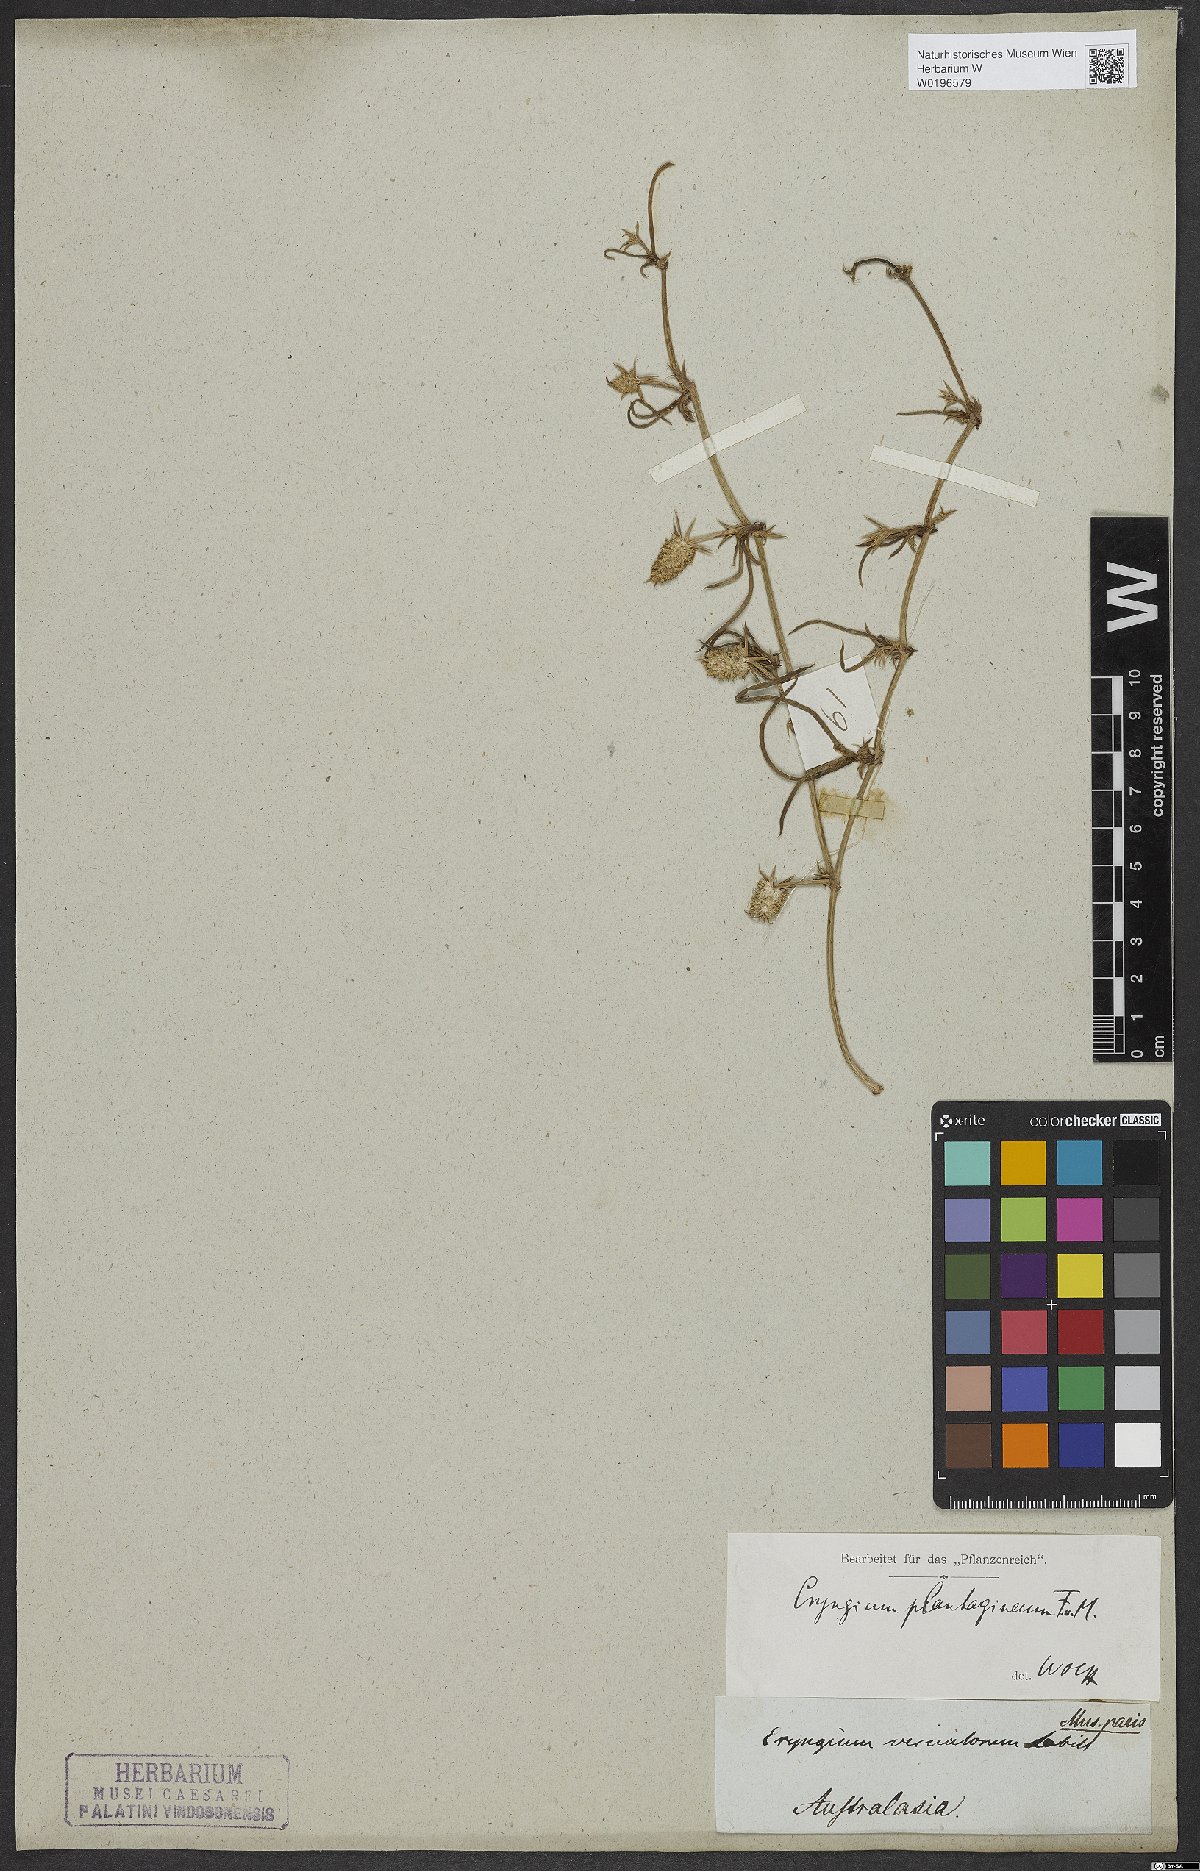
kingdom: Plantae
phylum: Tracheophyta
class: Magnoliopsida
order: Apiales
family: Apiaceae
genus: Eryngium
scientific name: Eryngium plantagineum
